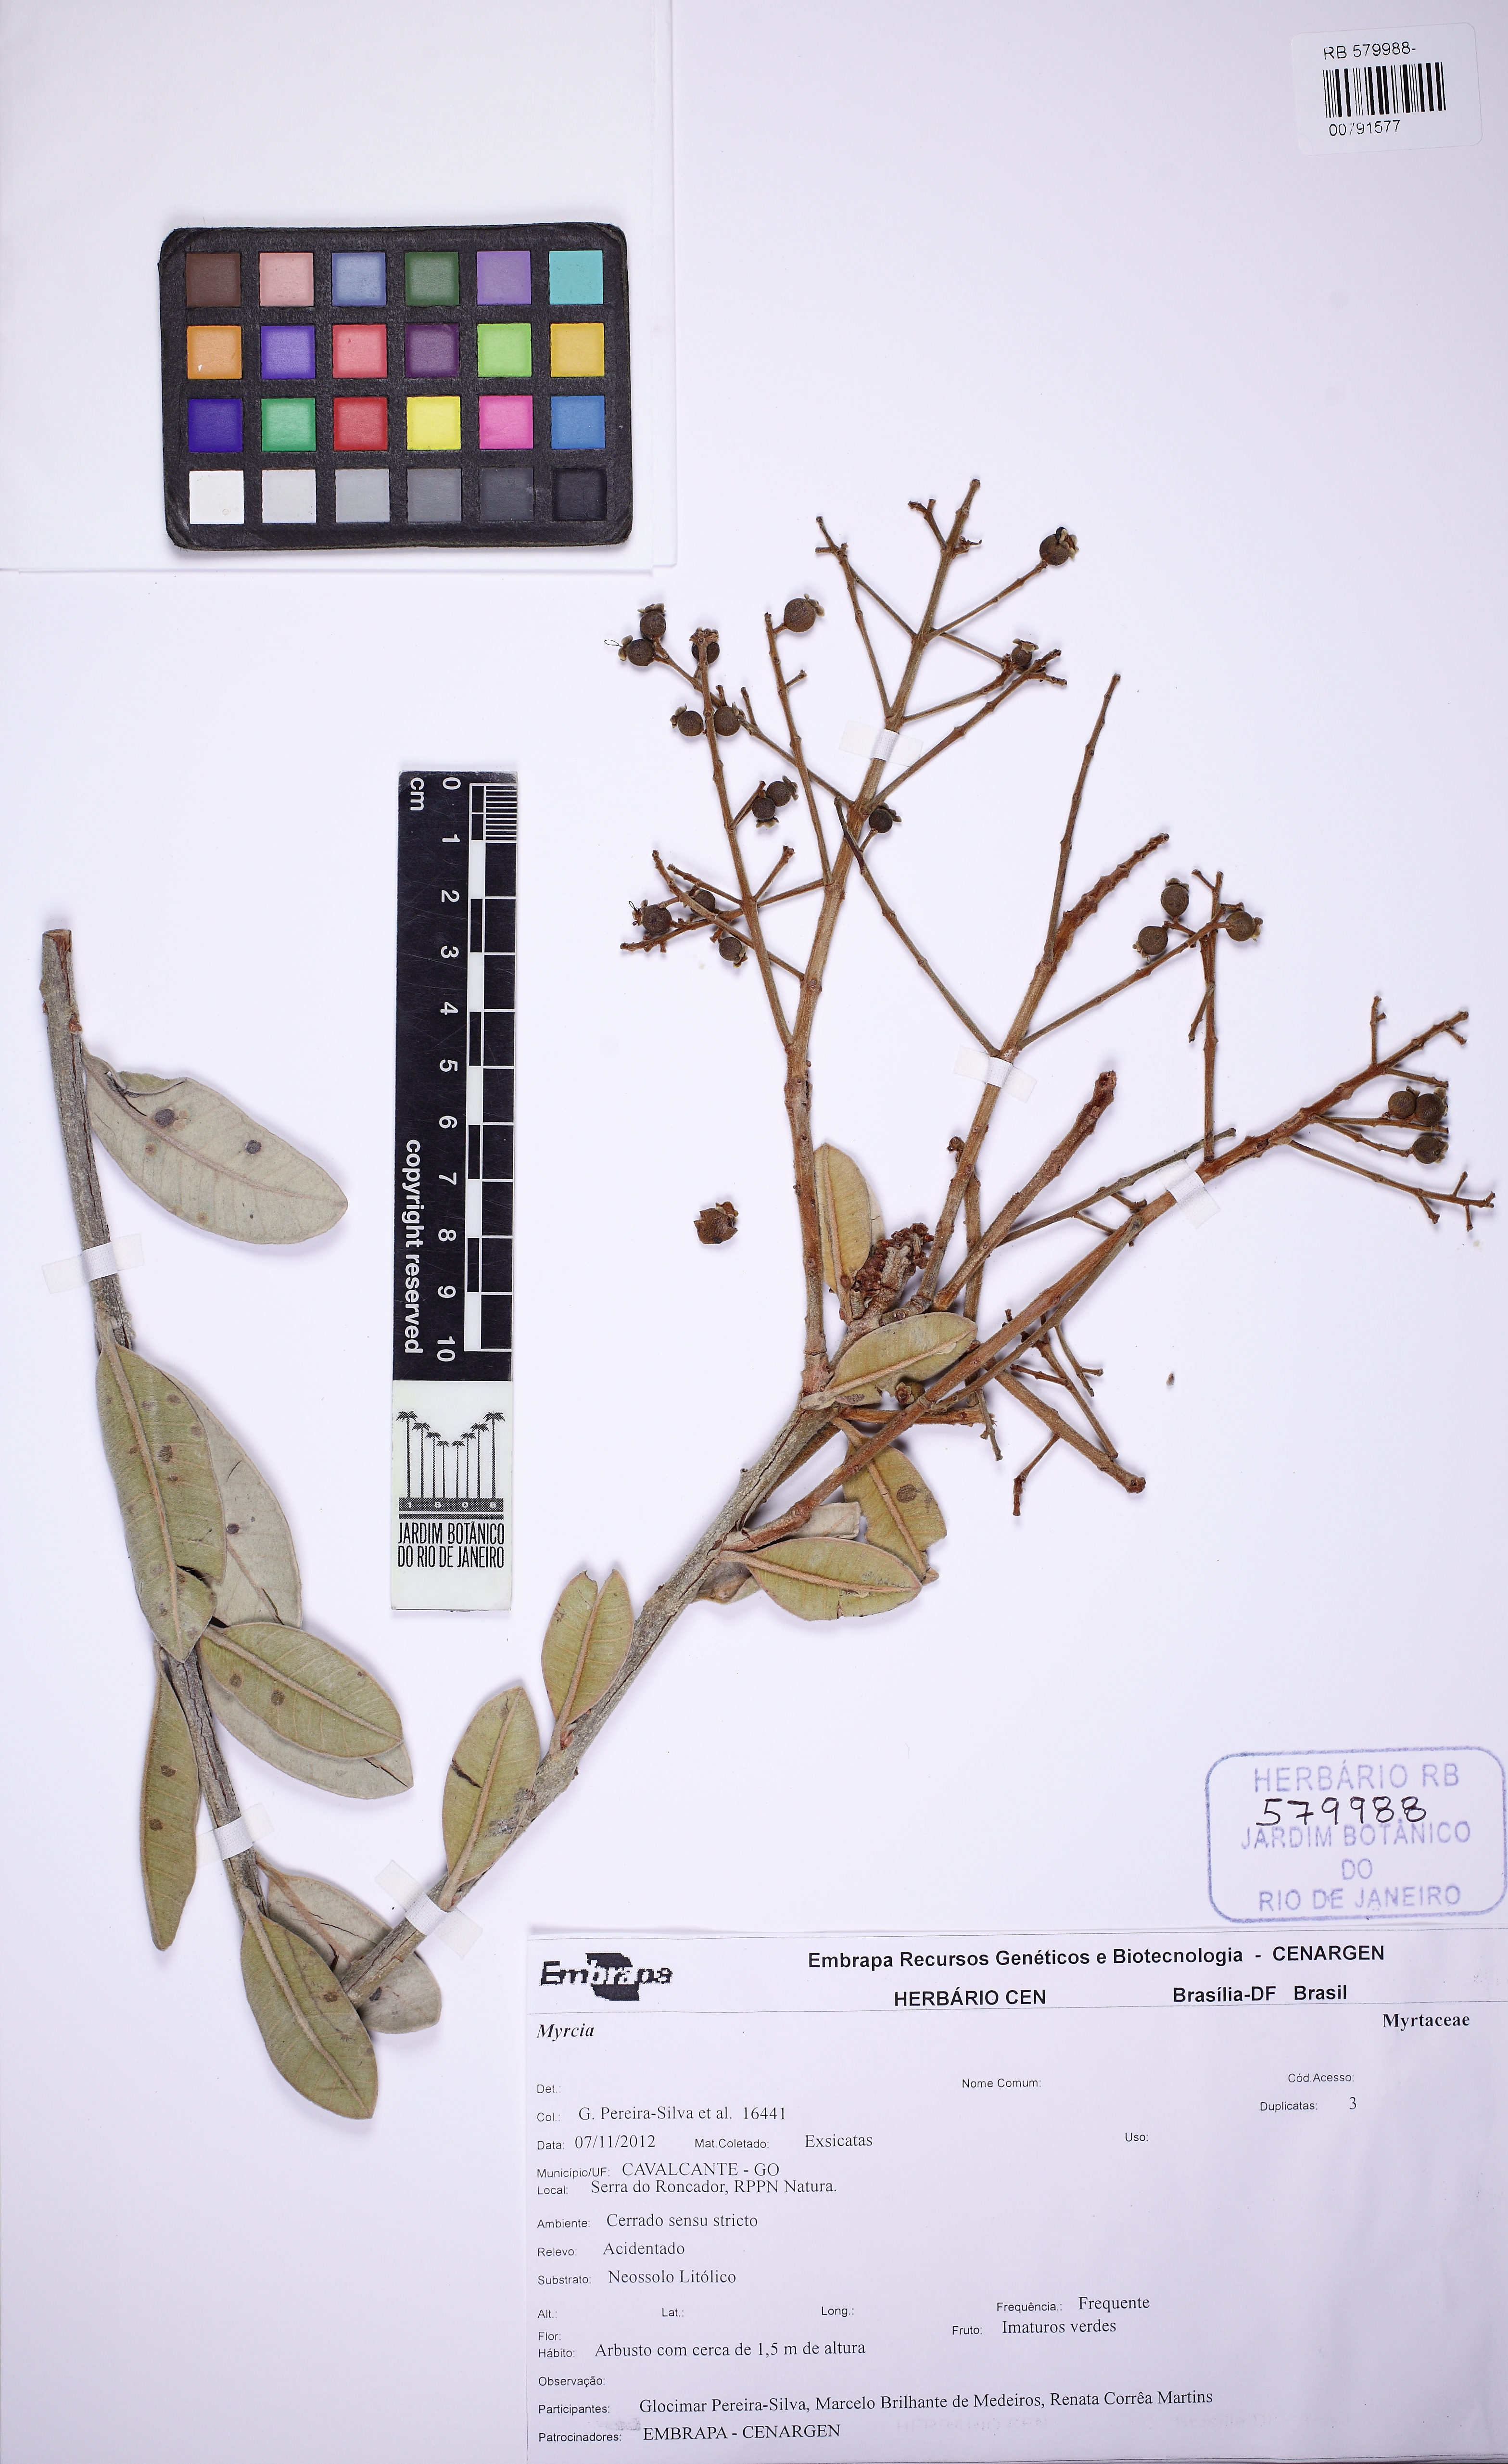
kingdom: Plantae
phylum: Tracheophyta
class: Magnoliopsida
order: Myrtales
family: Myrtaceae
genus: Myrcia
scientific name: Myrcia vestita
